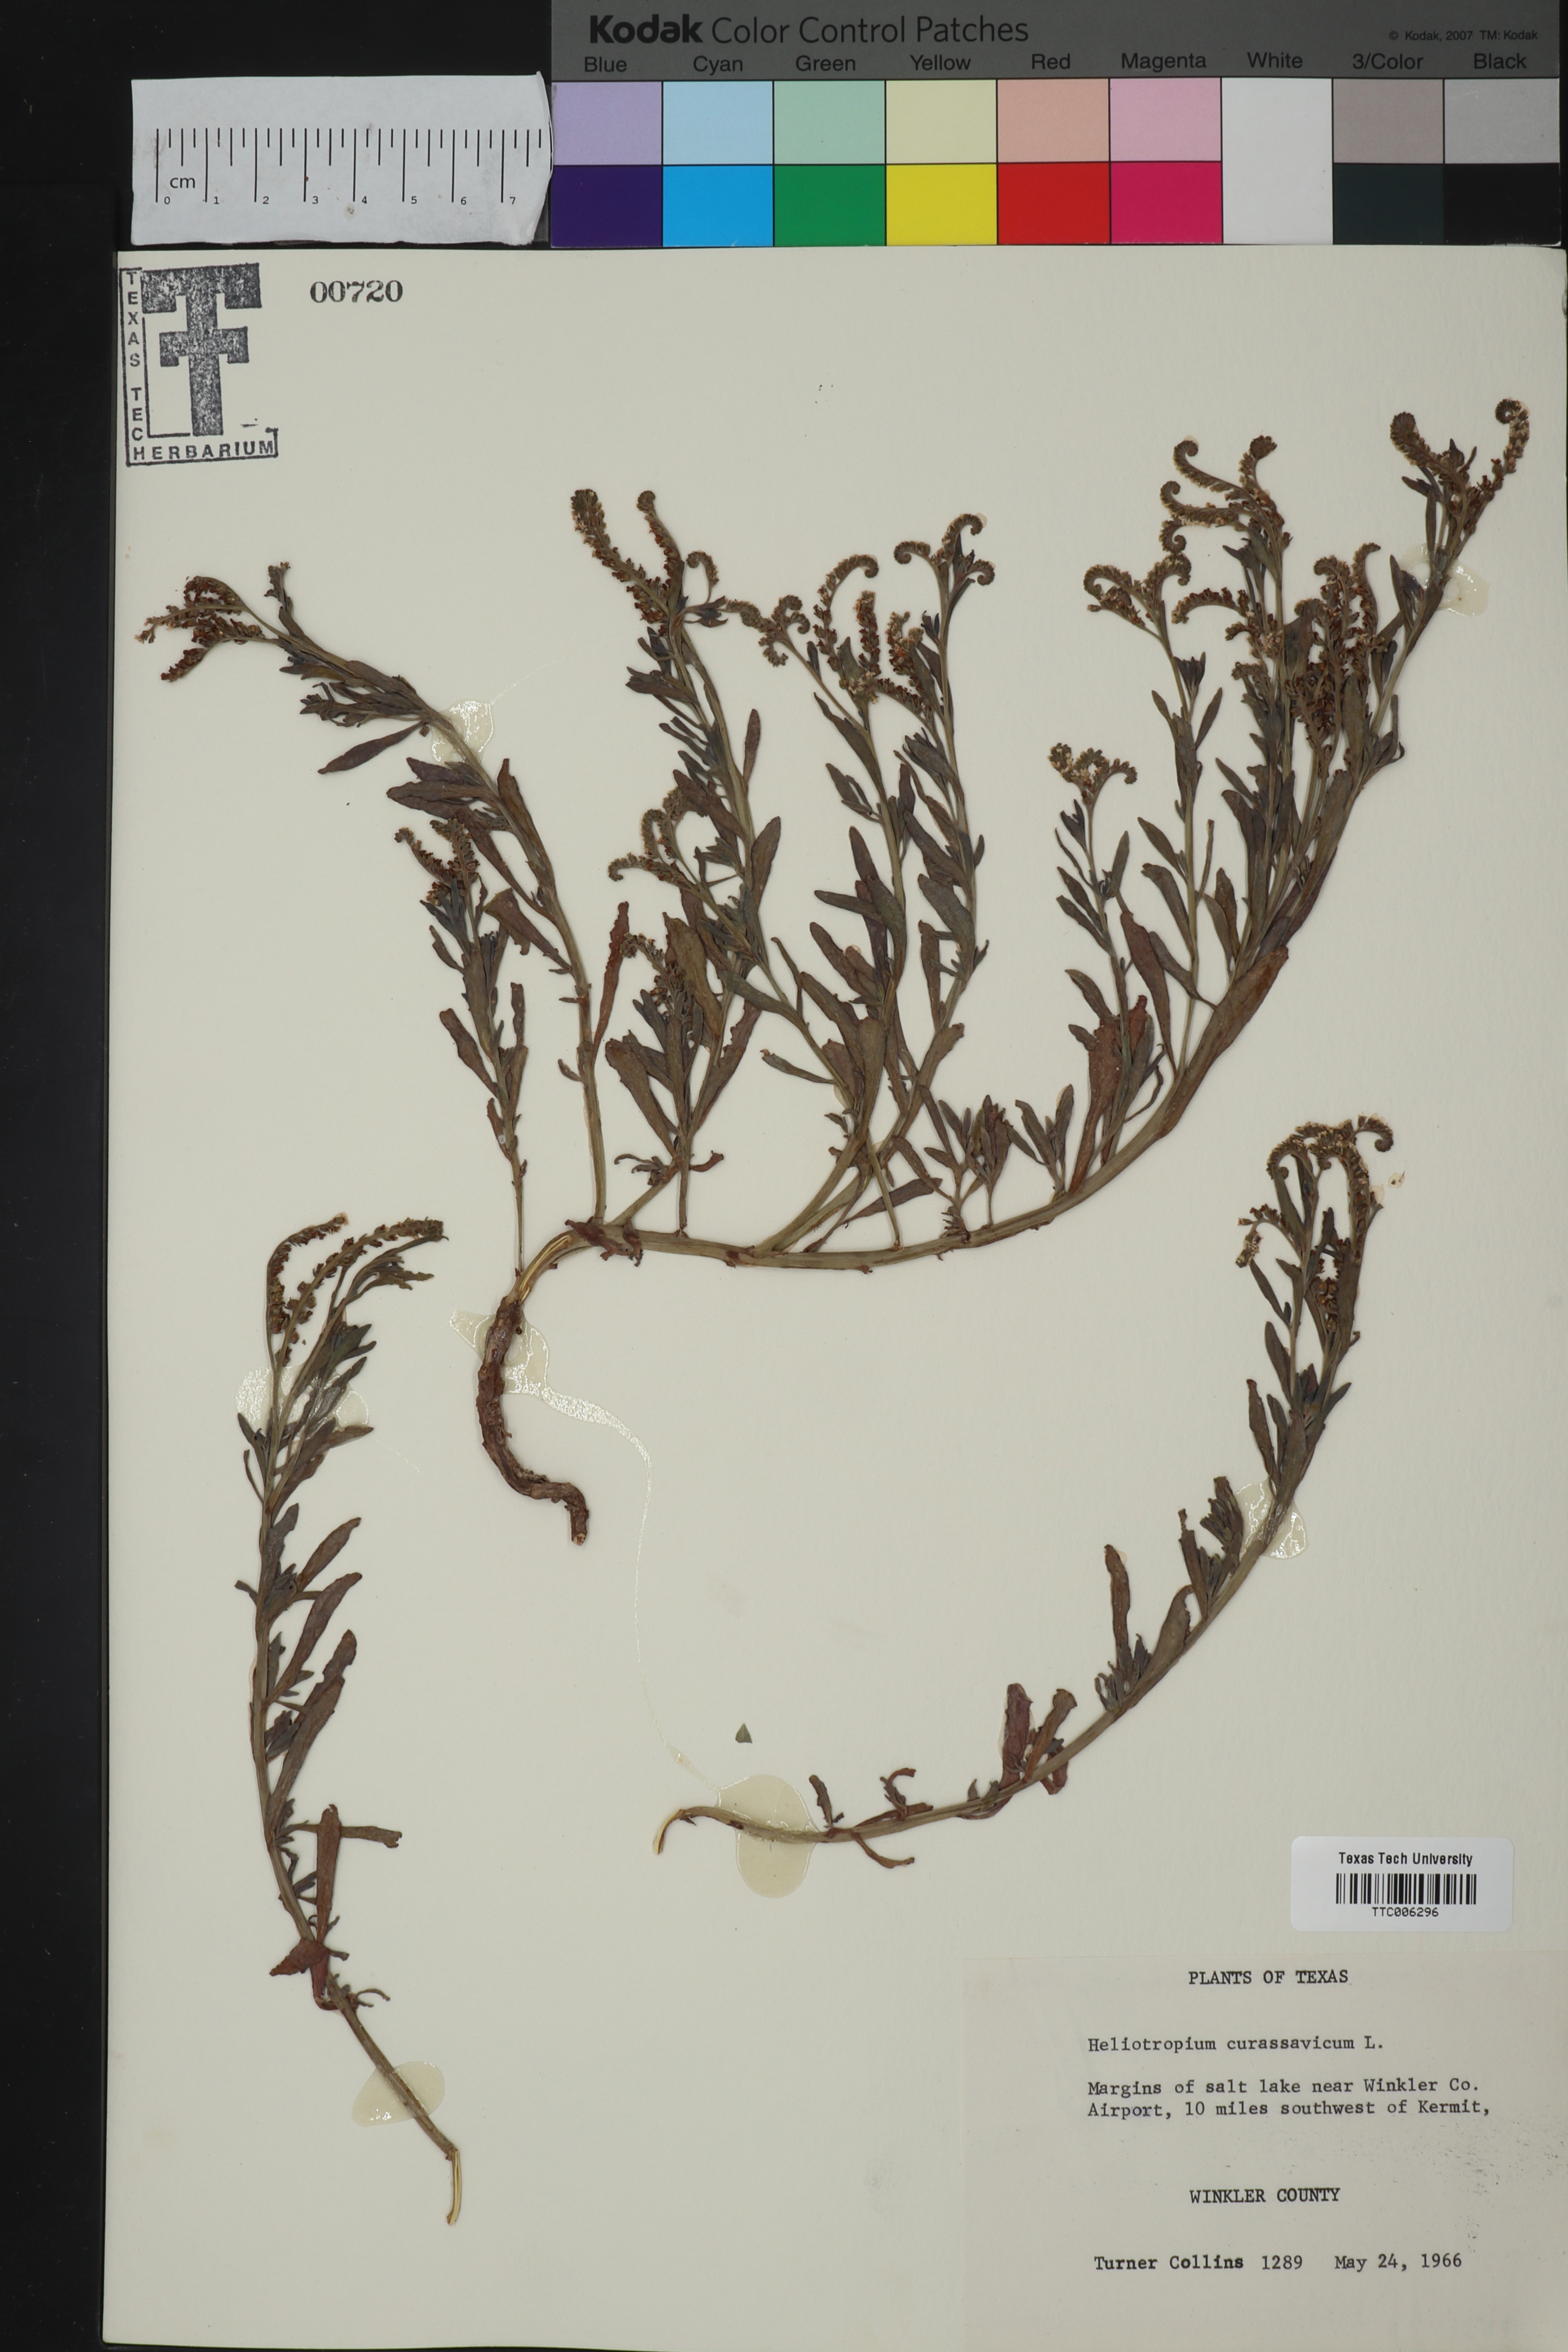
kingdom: Plantae
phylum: Tracheophyta
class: Magnoliopsida
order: Boraginales
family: Heliotropiaceae
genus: Heliotropium
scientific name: Heliotropium curassavicum
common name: Seaside heliotrope
